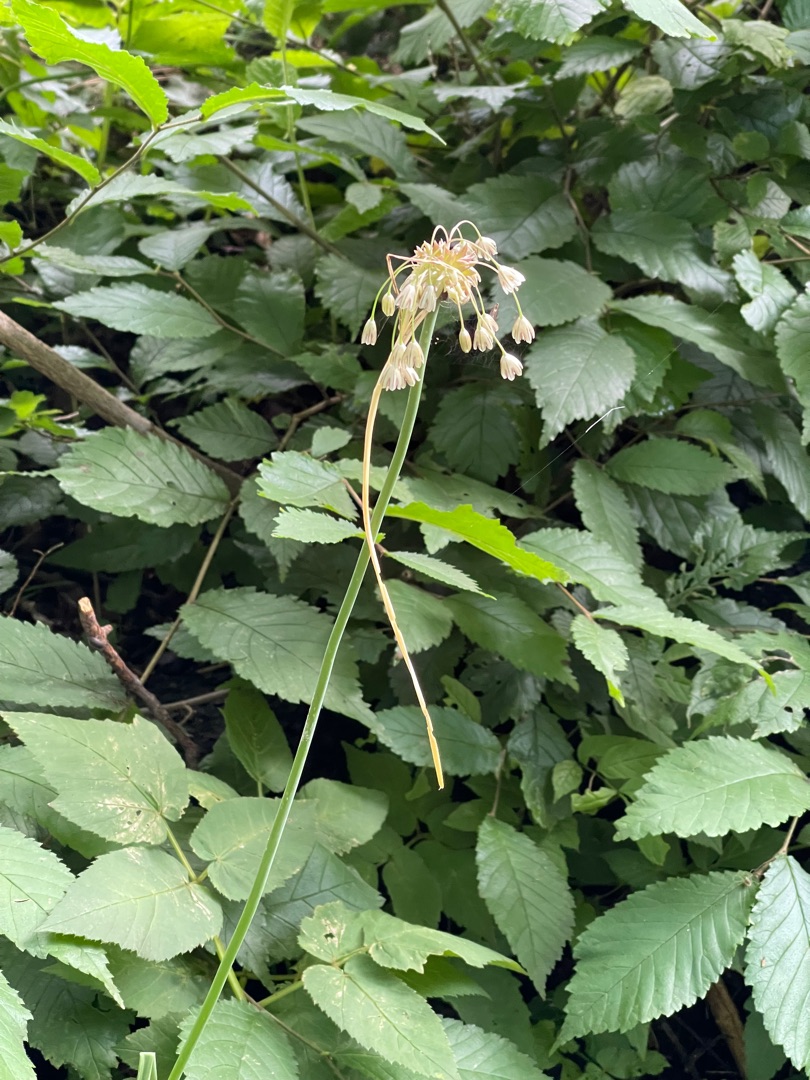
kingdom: Plantae
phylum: Tracheophyta
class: Liliopsida
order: Asparagales
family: Amaryllidaceae
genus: Allium
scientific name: Allium oleraceum
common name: Vild løg
